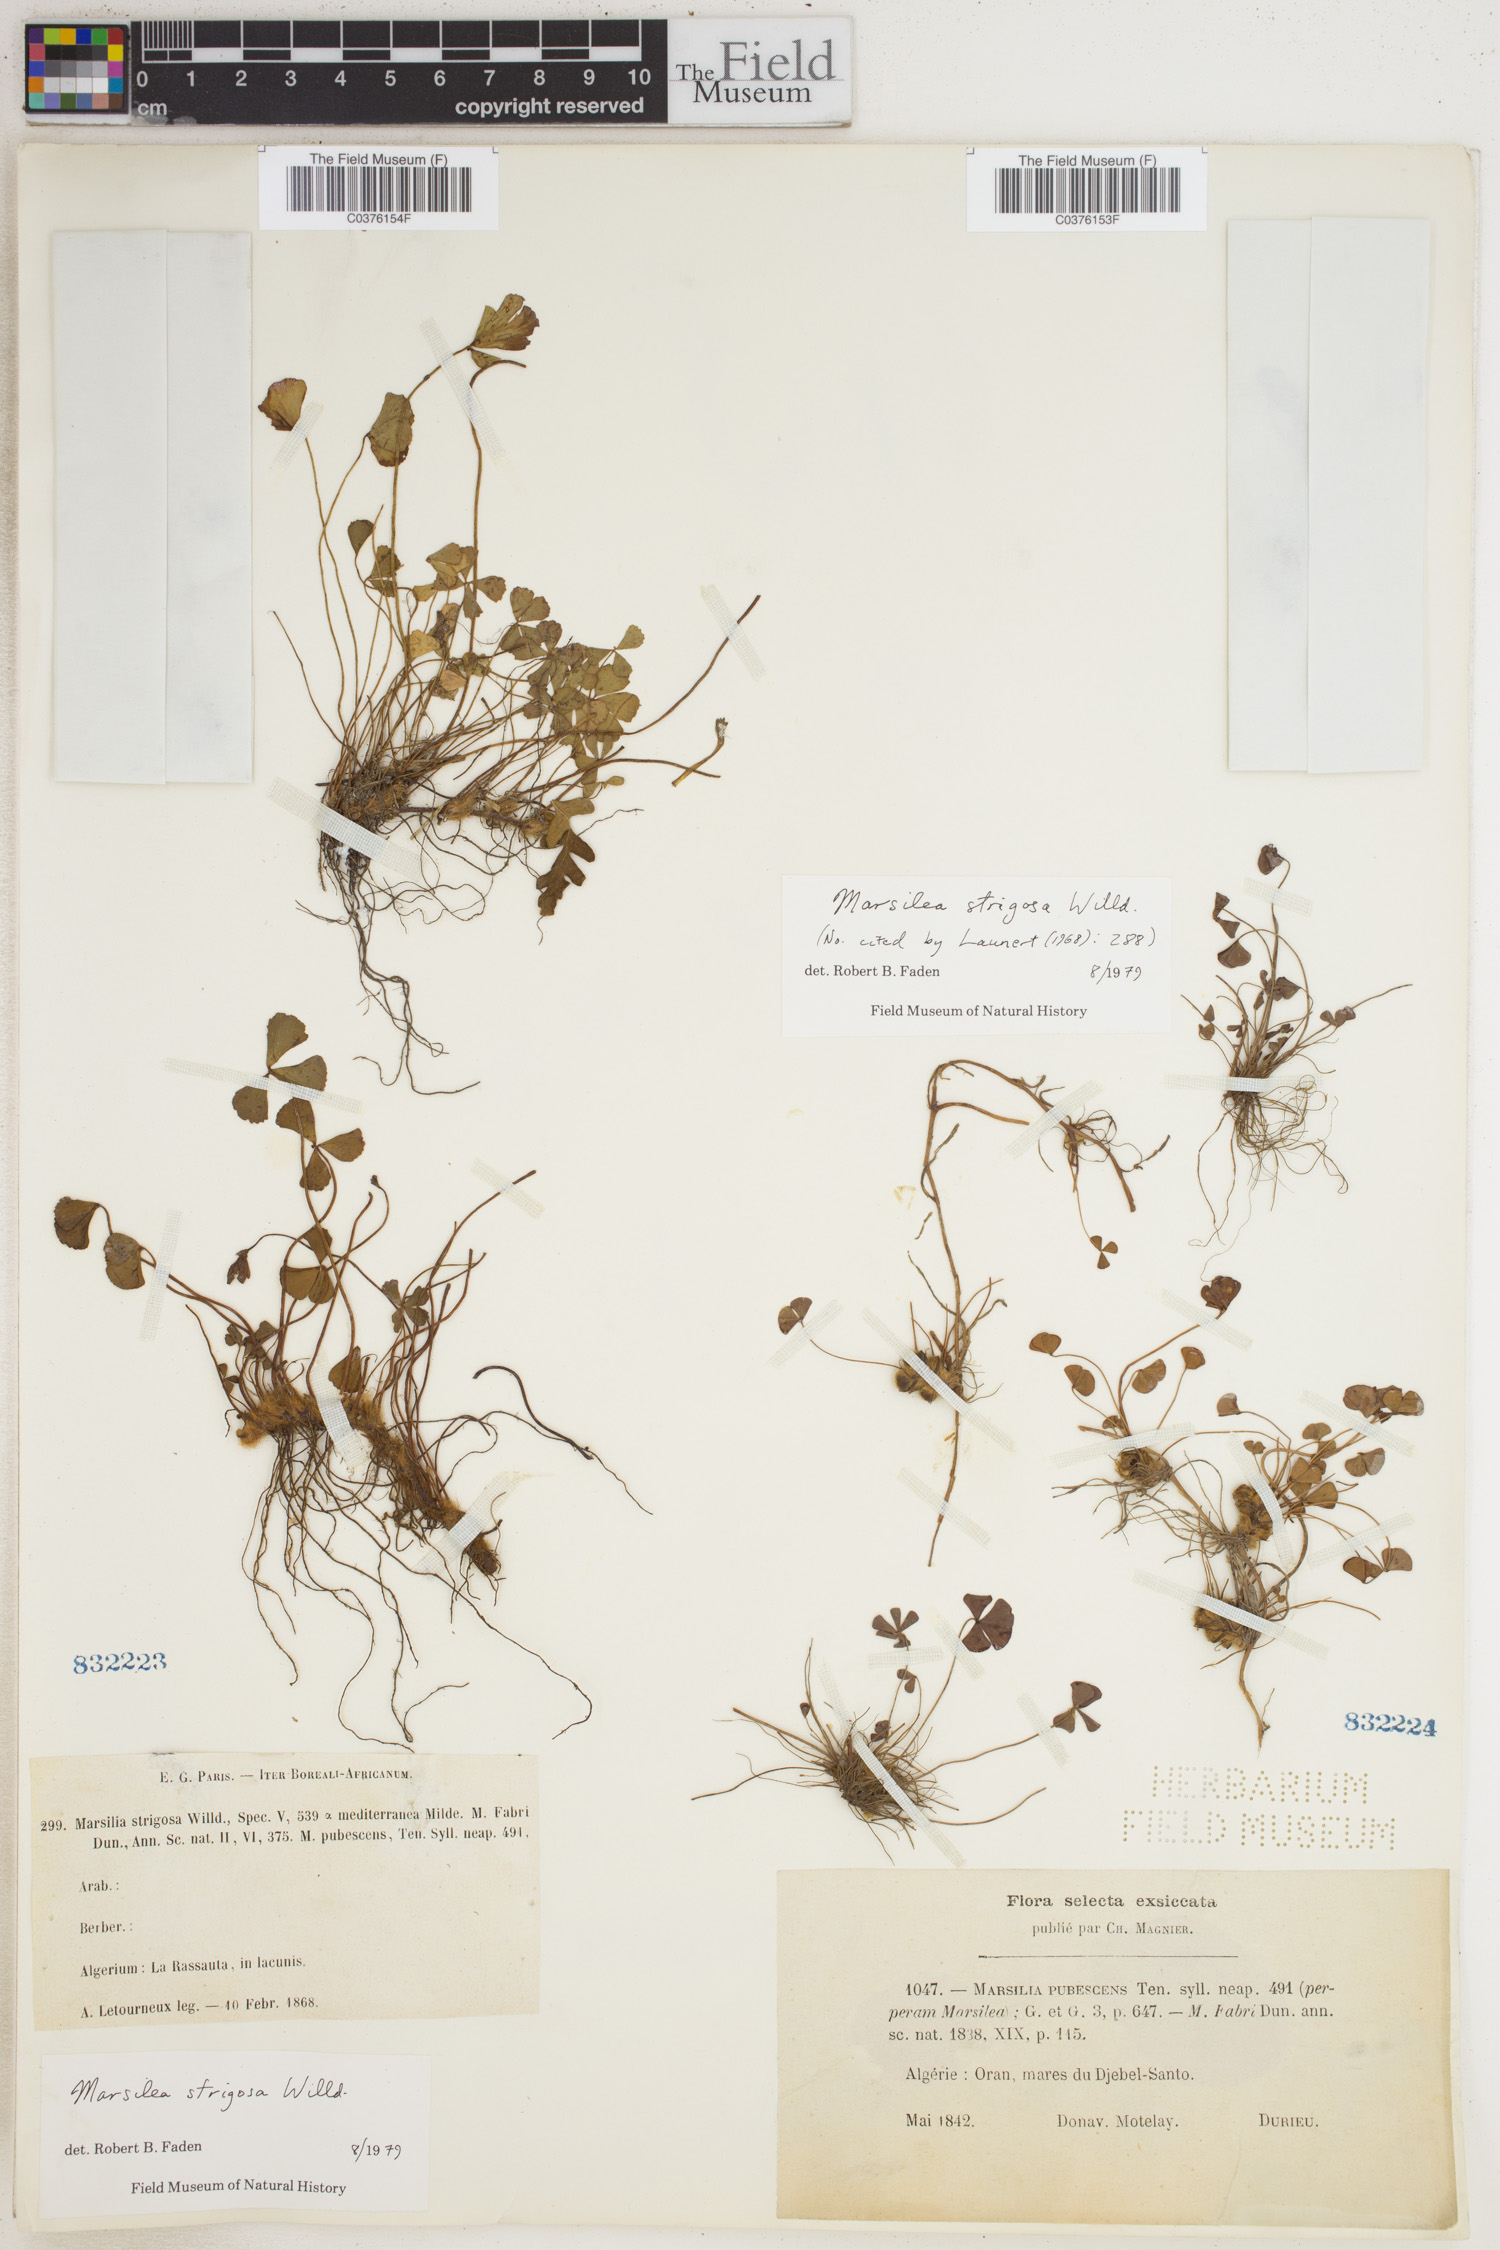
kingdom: Plantae
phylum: Tracheophyta
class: Polypodiopsida
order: Salviniales
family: Marsileaceae
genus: Marsilea
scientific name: Marsilea strigosa
